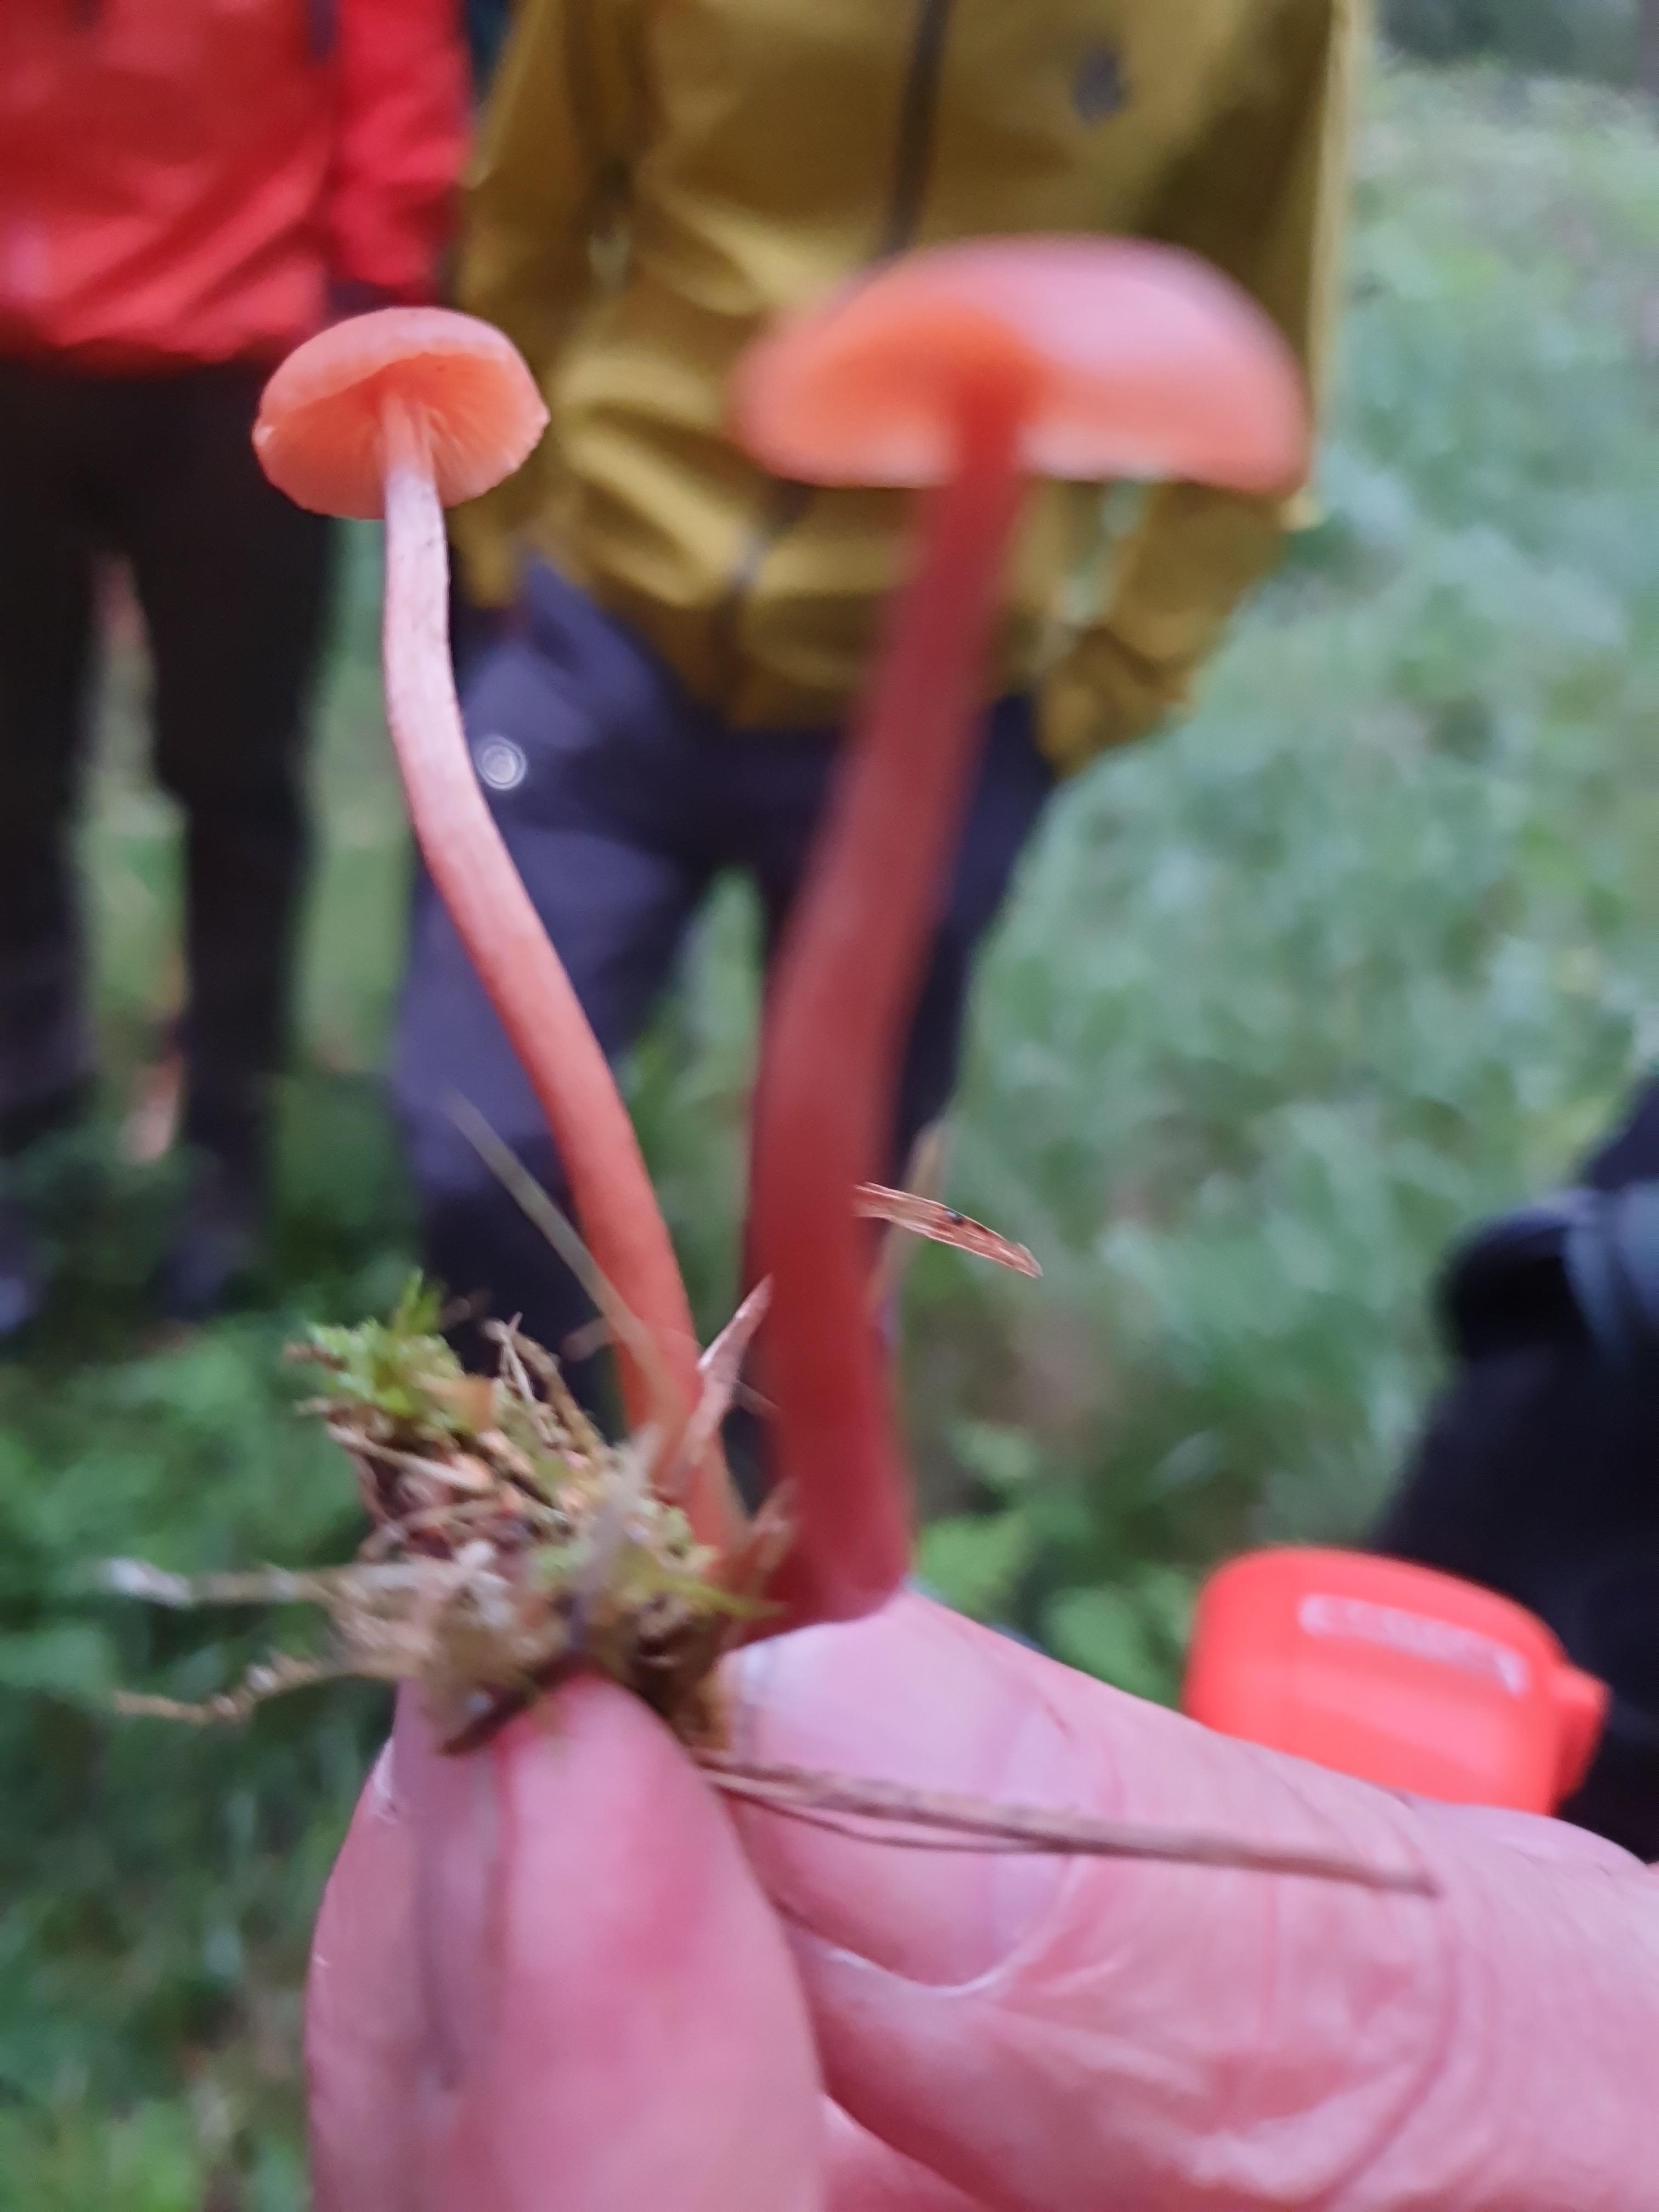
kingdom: Fungi
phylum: Basidiomycota
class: Agaricomycetes
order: Agaricales
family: Hydnangiaceae
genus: Laccaria
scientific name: Laccaria laccata
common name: rød ametysthat
